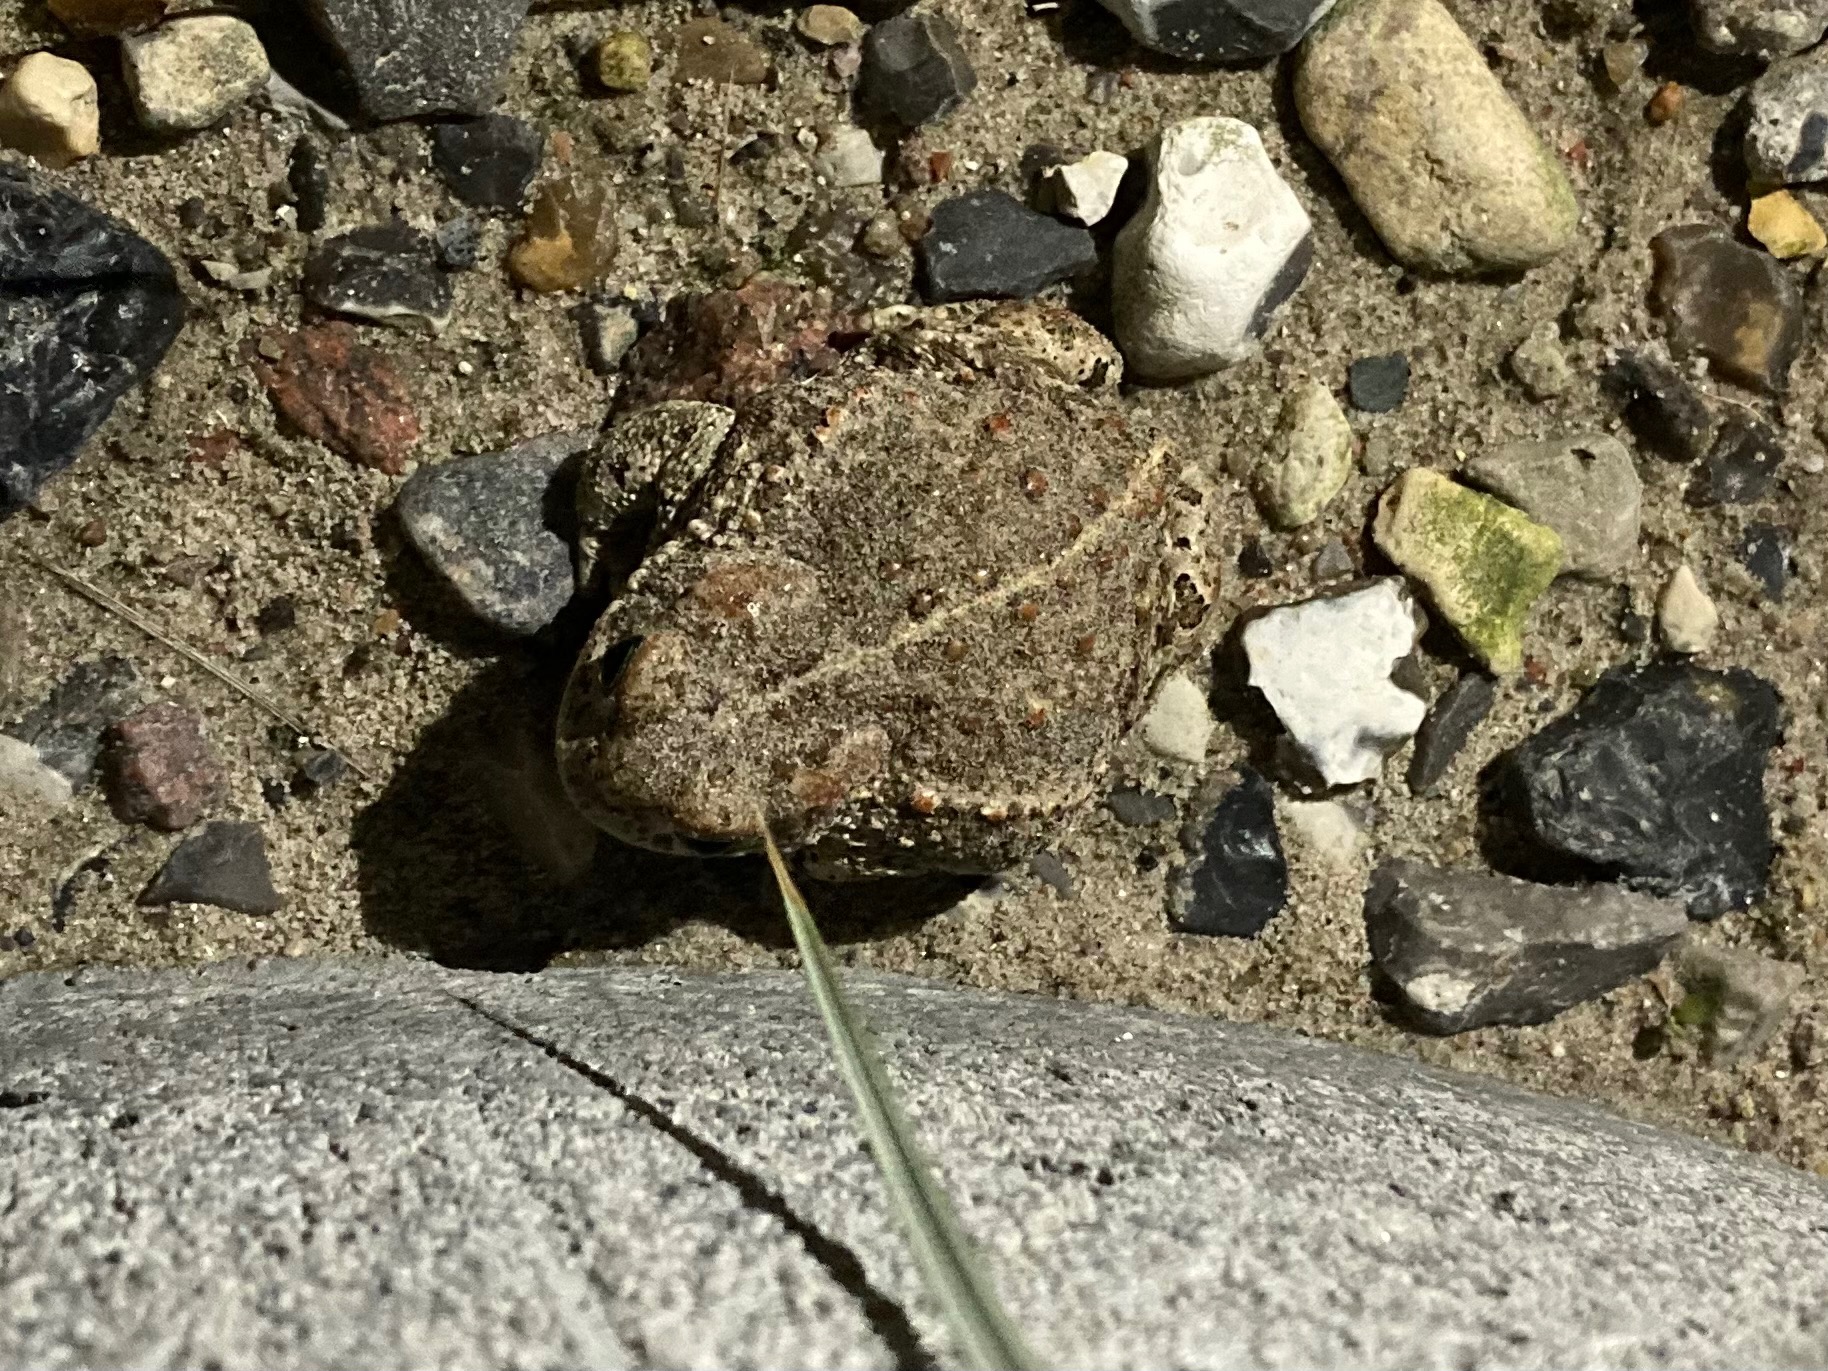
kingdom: Animalia
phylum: Chordata
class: Amphibia
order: Anura
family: Bufonidae
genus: Epidalea
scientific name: Epidalea calamita
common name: Strandtudse
